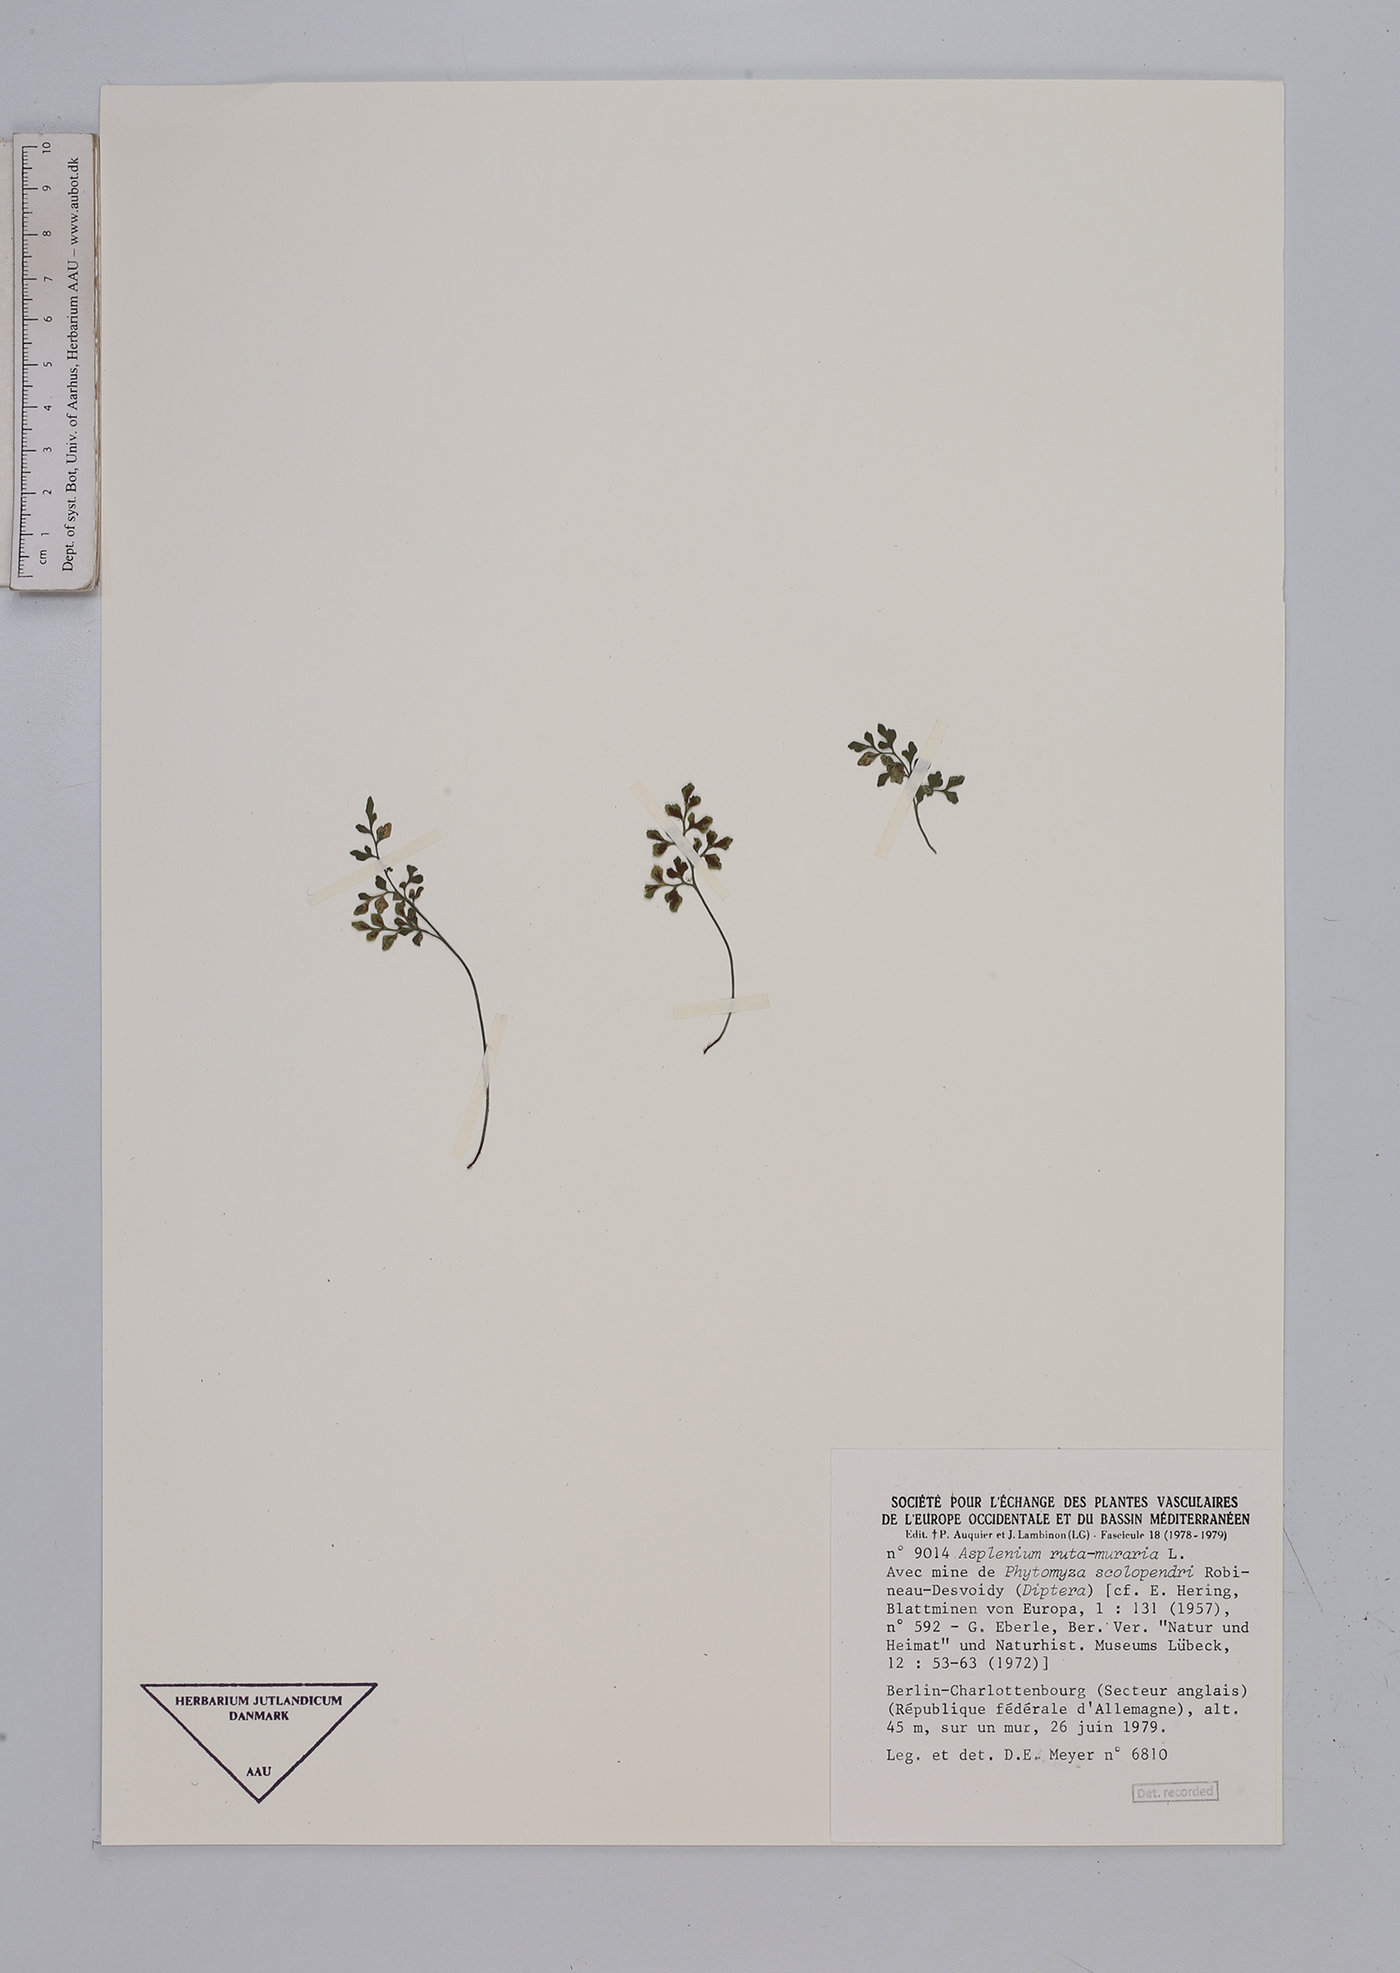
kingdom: Plantae
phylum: Tracheophyta
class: Polypodiopsida
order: Polypodiales
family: Aspleniaceae
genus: Asplenium
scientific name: Asplenium ruta-muraria
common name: Wall-rue
